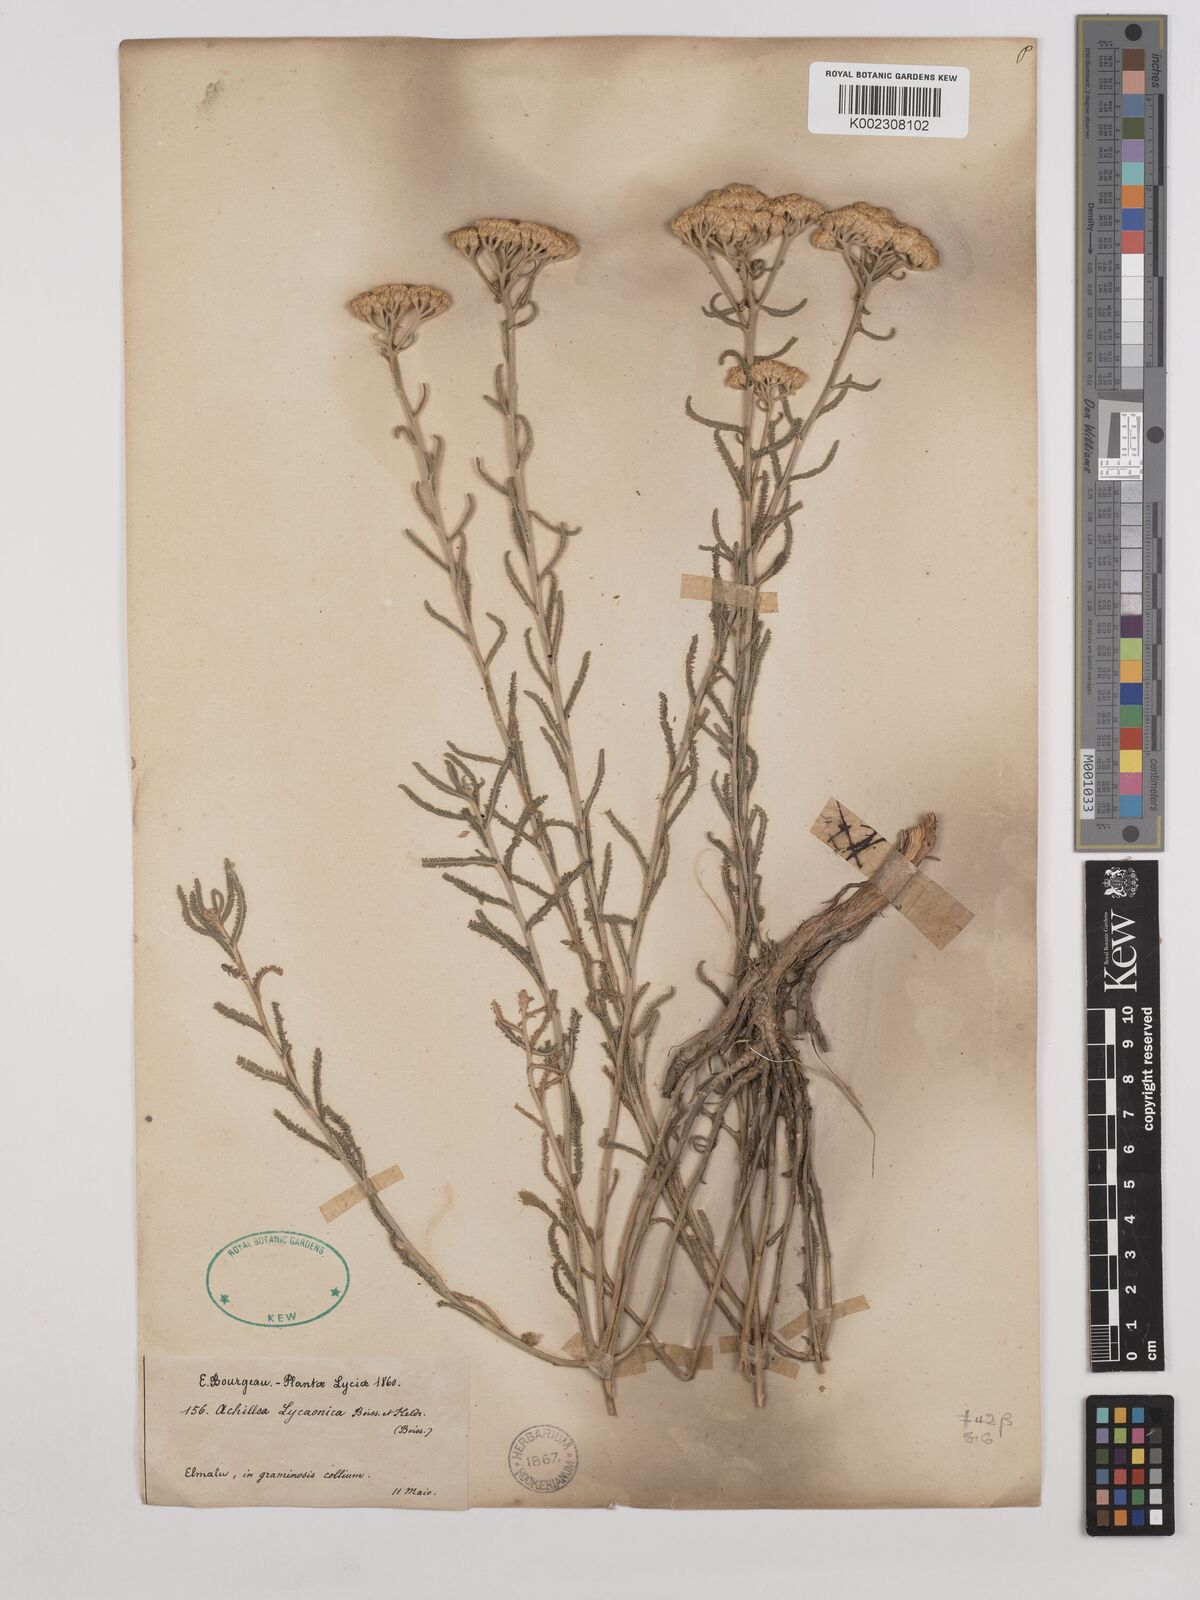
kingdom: Plantae
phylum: Tracheophyta
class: Magnoliopsida
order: Asterales
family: Asteraceae
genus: Achillea
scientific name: Achillea lycaonica
